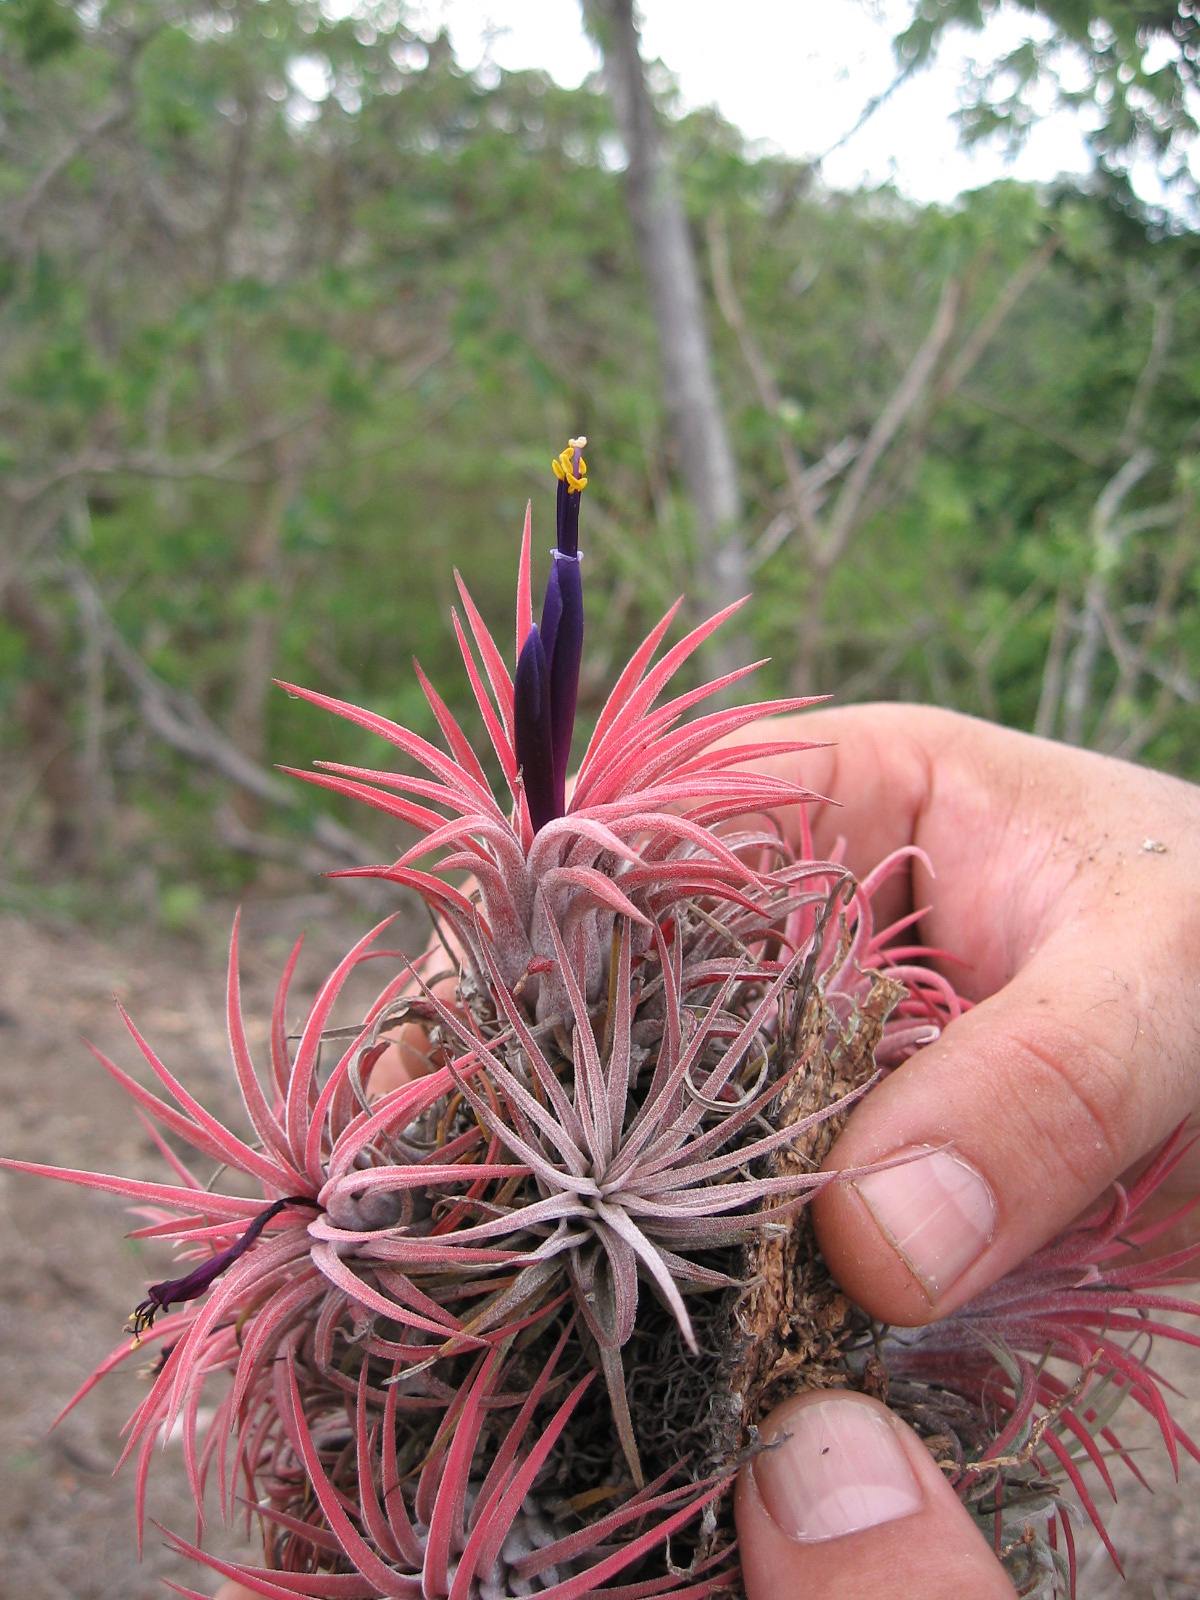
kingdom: Plantae
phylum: Tracheophyta
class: Liliopsida
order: Poales
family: Bromeliaceae
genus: Tillandsia
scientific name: Tillandsia ionantha
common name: Sky plant
